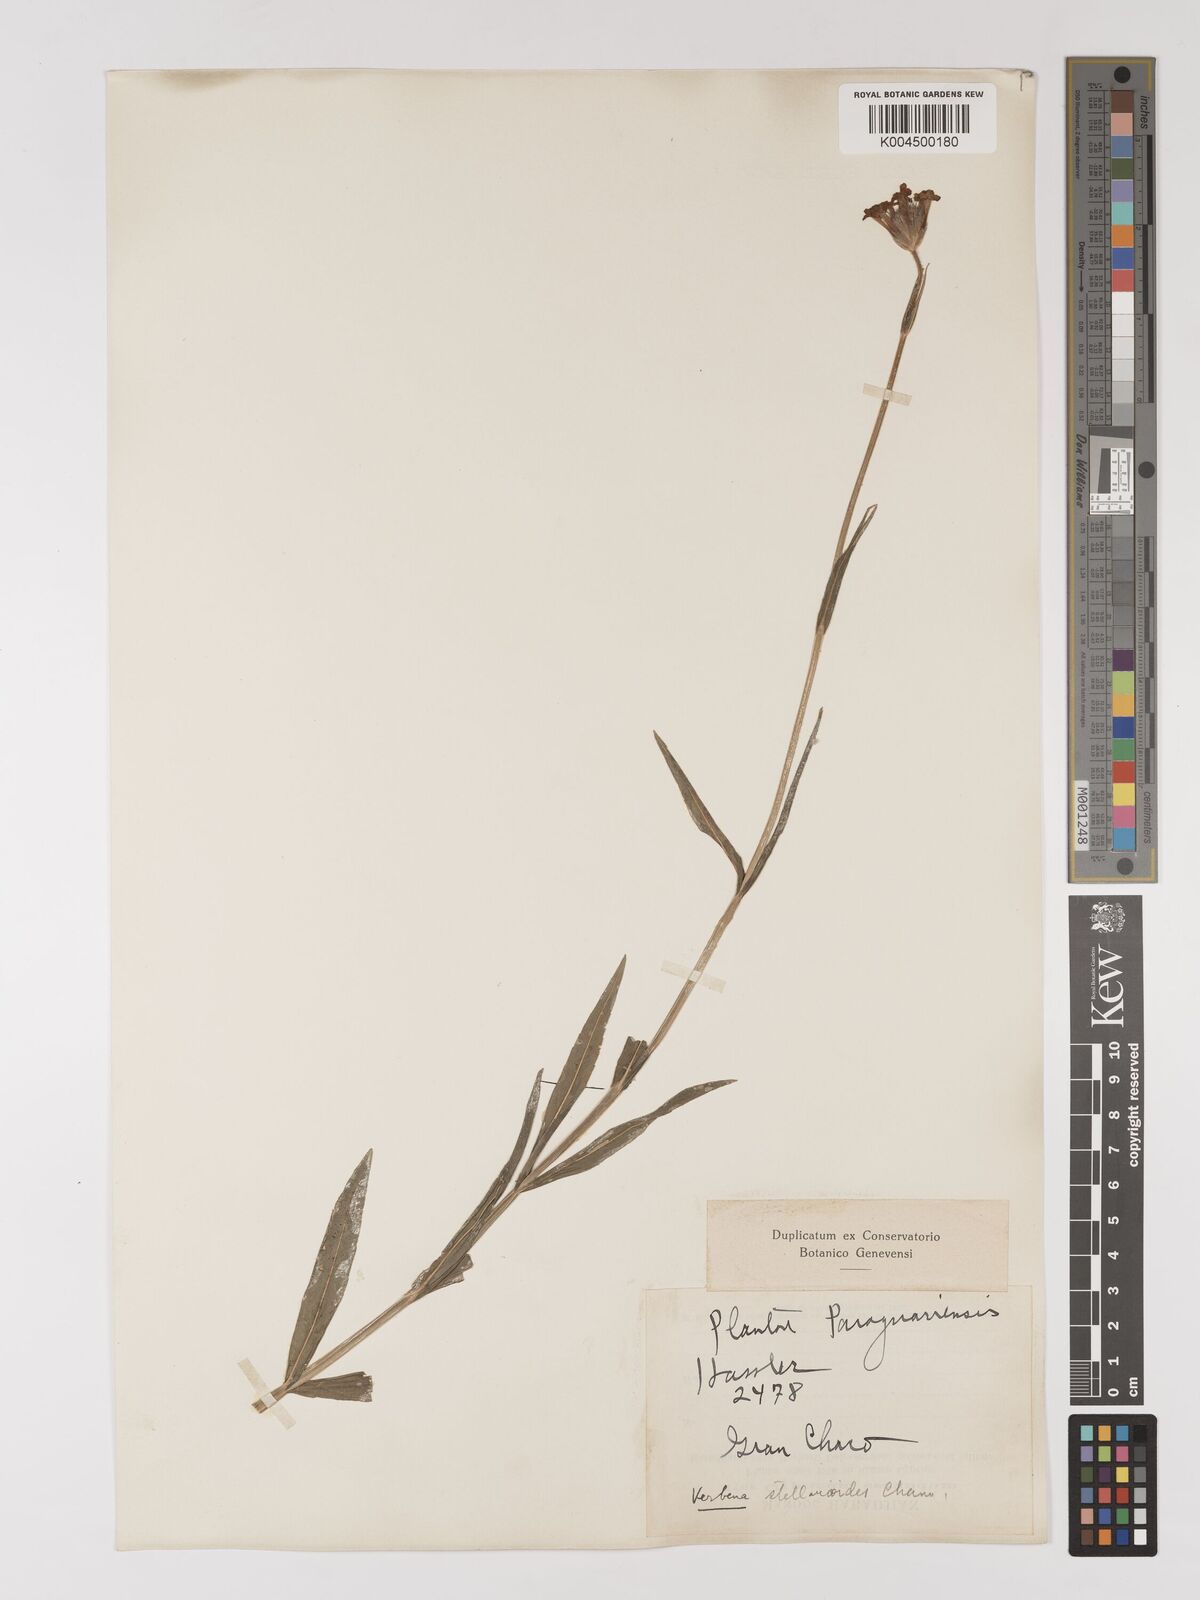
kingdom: Plantae
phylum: Tracheophyta
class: Magnoliopsida
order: Lamiales
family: Verbenaceae
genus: Verbena
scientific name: Verbena
